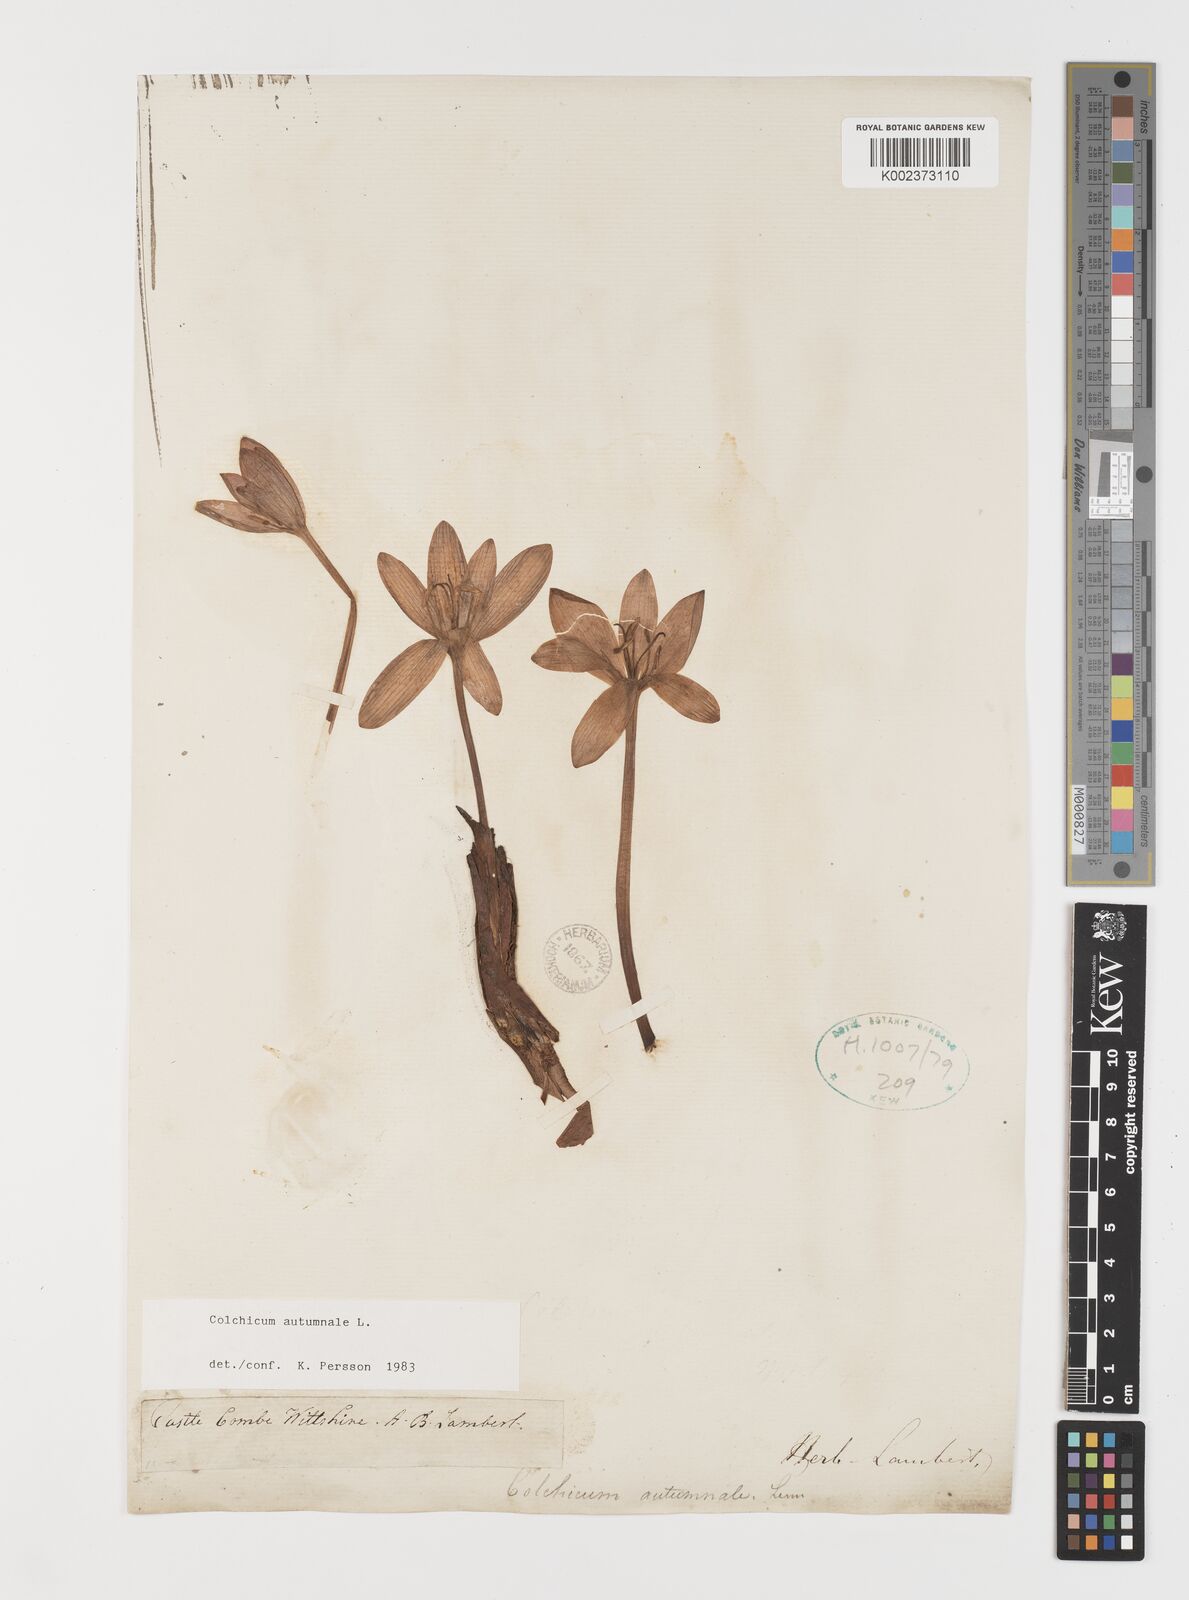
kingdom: Plantae
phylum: Tracheophyta
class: Liliopsida
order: Liliales
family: Colchicaceae
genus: Colchicum
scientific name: Colchicum autumnale
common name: Autumn crocus
